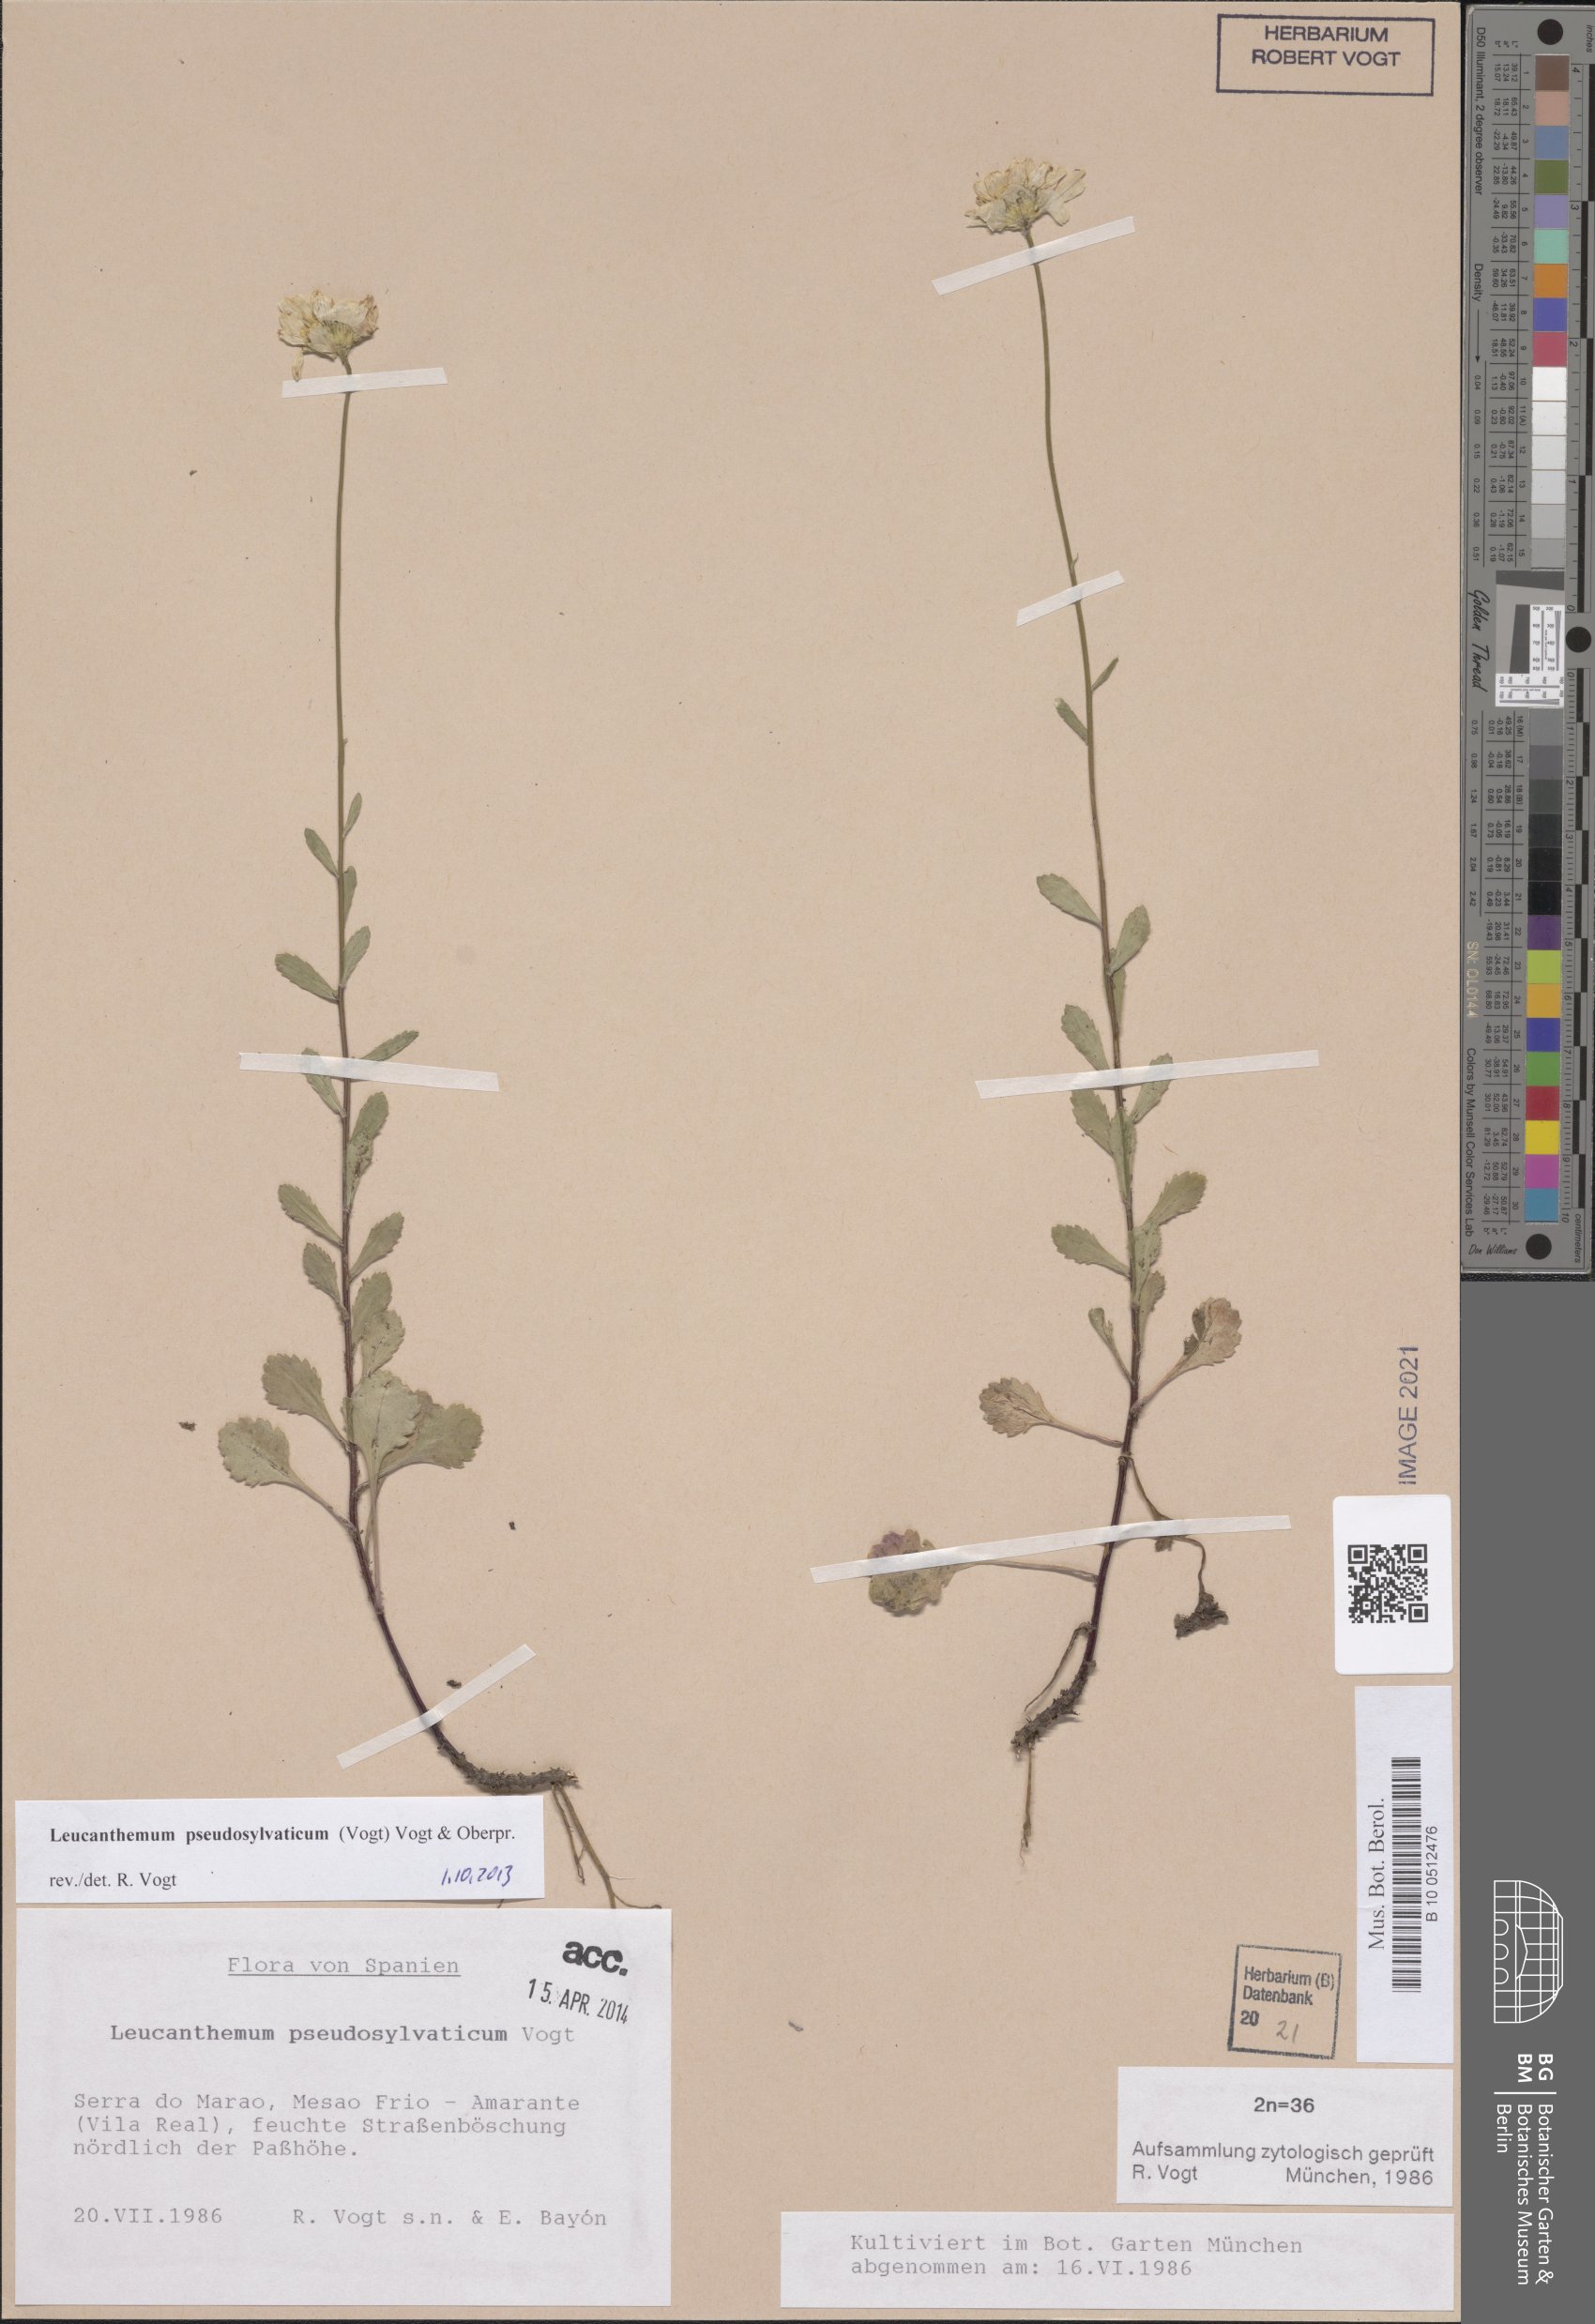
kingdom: Plantae
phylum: Tracheophyta
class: Magnoliopsida
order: Asterales
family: Asteraceae
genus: Leucanthemum
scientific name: Leucanthemum pseudosylvaticum
